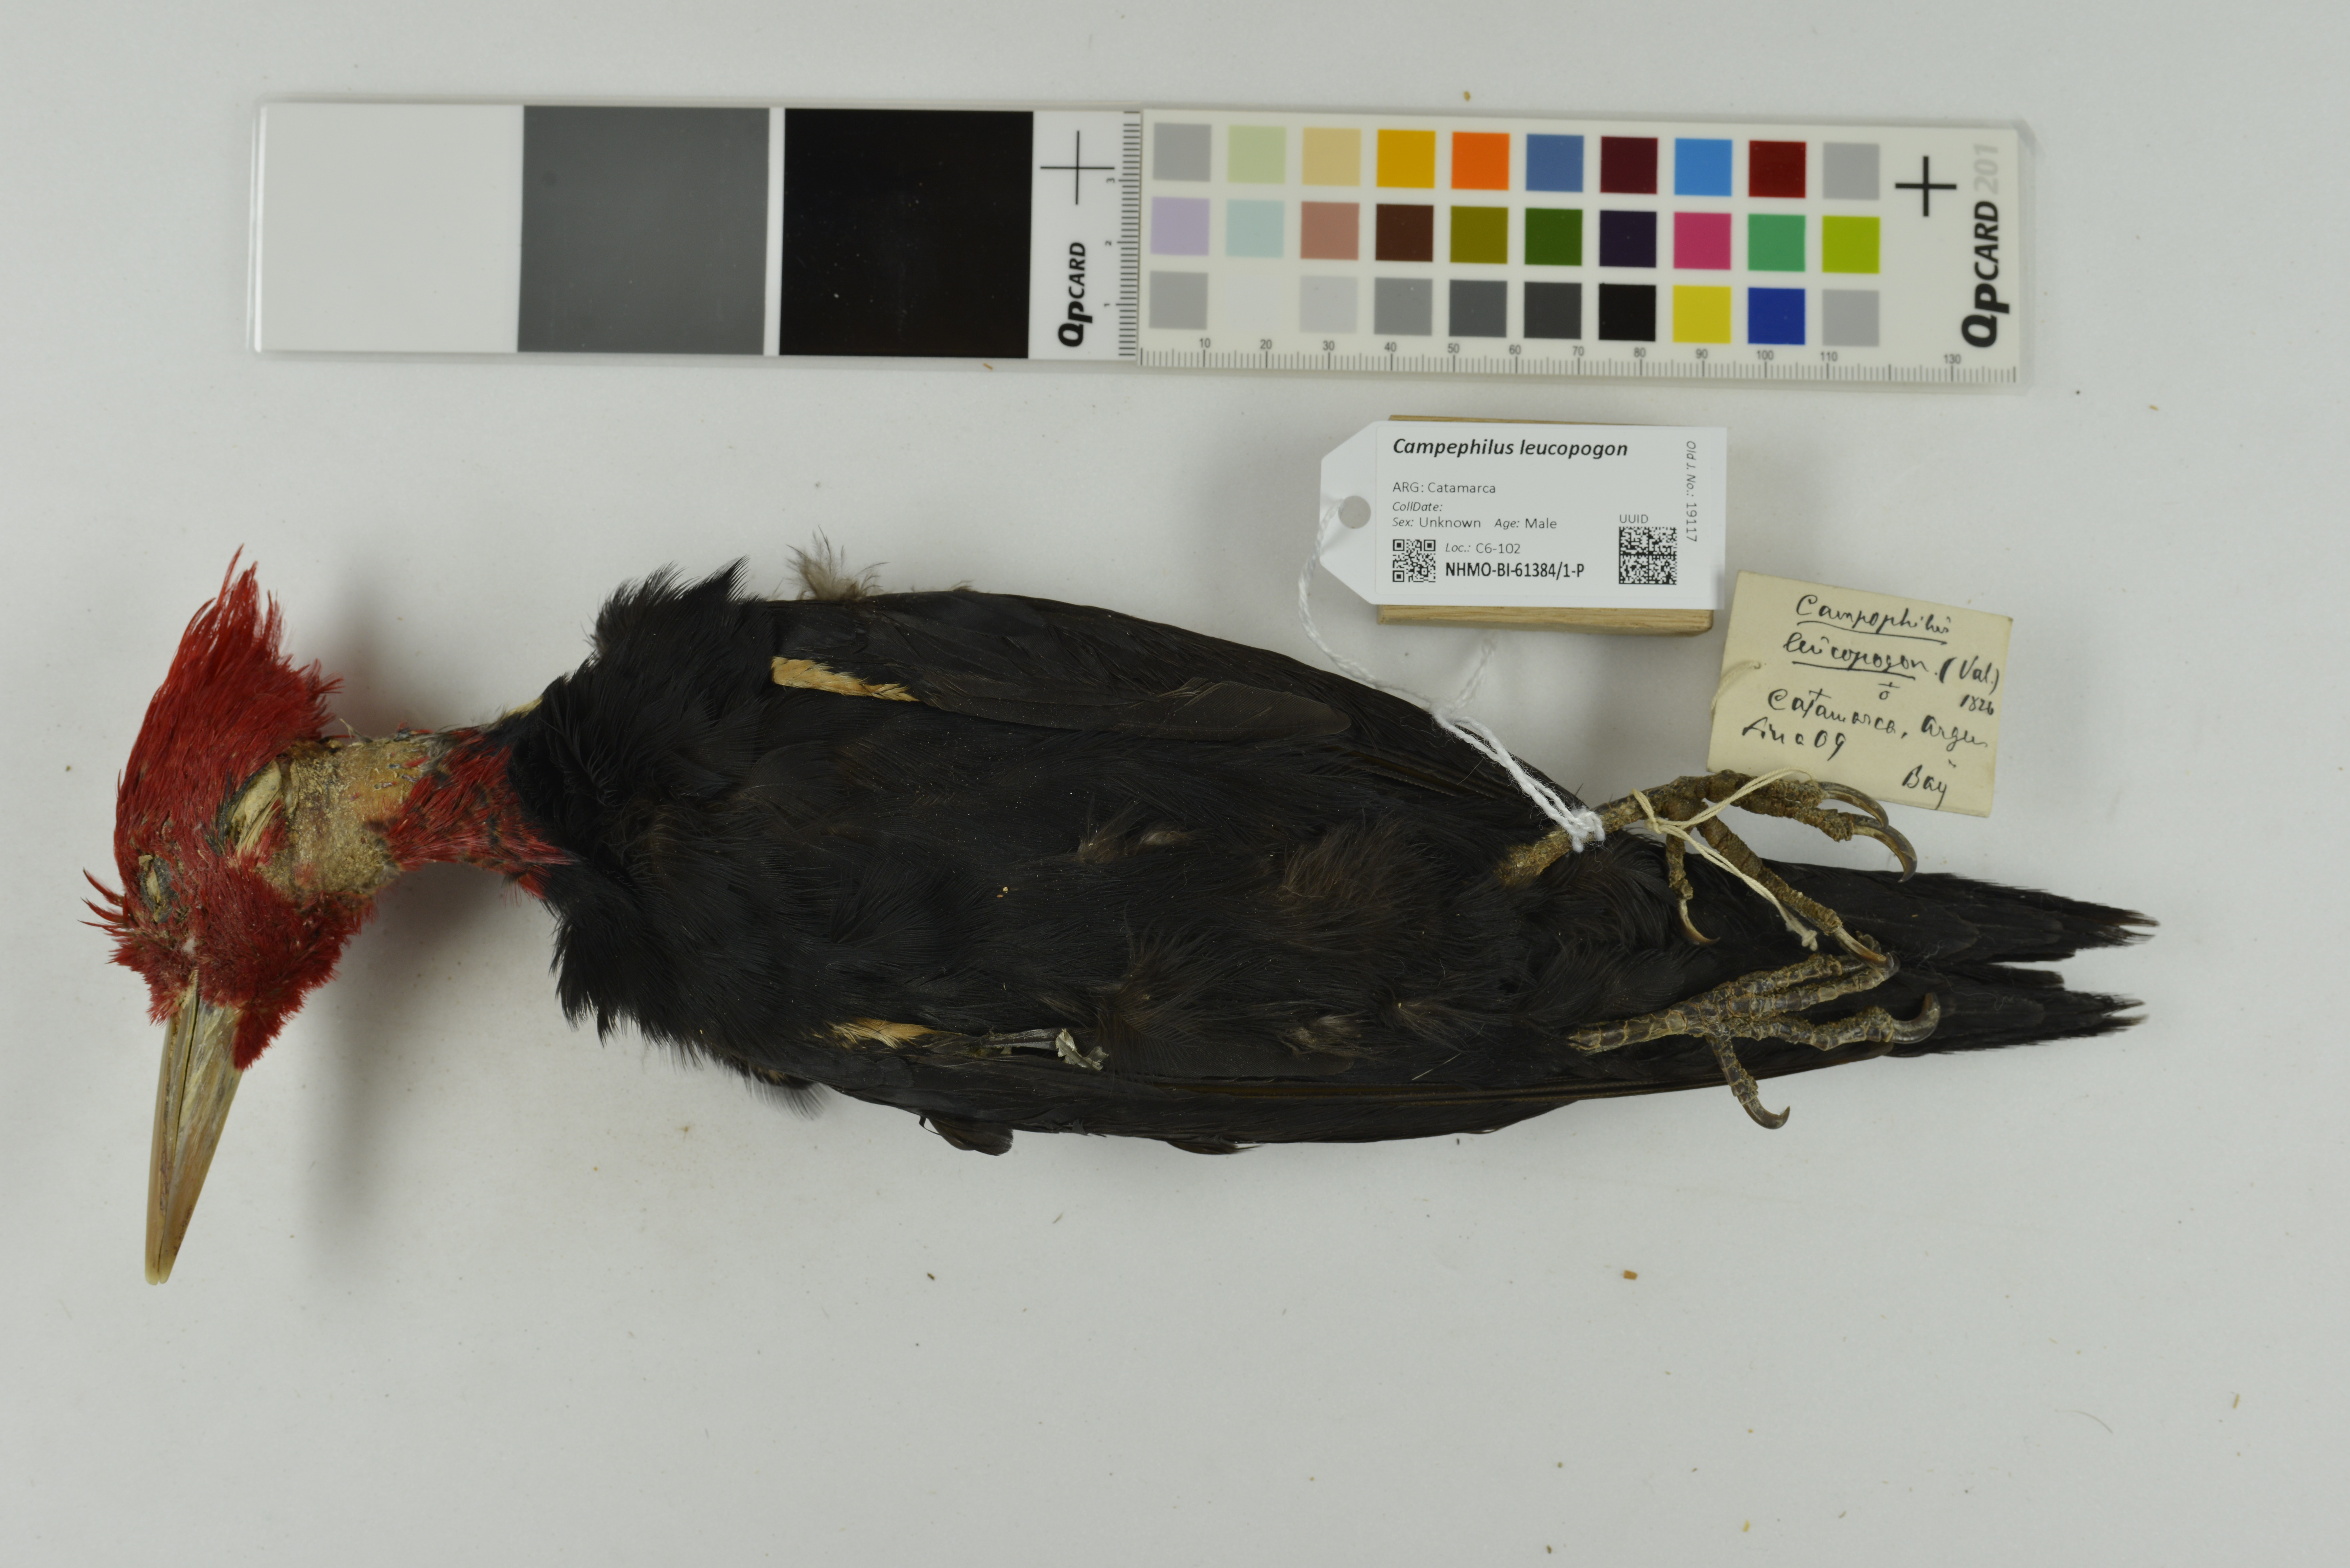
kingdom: Animalia
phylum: Chordata
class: Aves
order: Piciformes
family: Picidae
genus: Campephilus
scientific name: Campephilus leucopogon
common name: Cream-backed woodpecker
